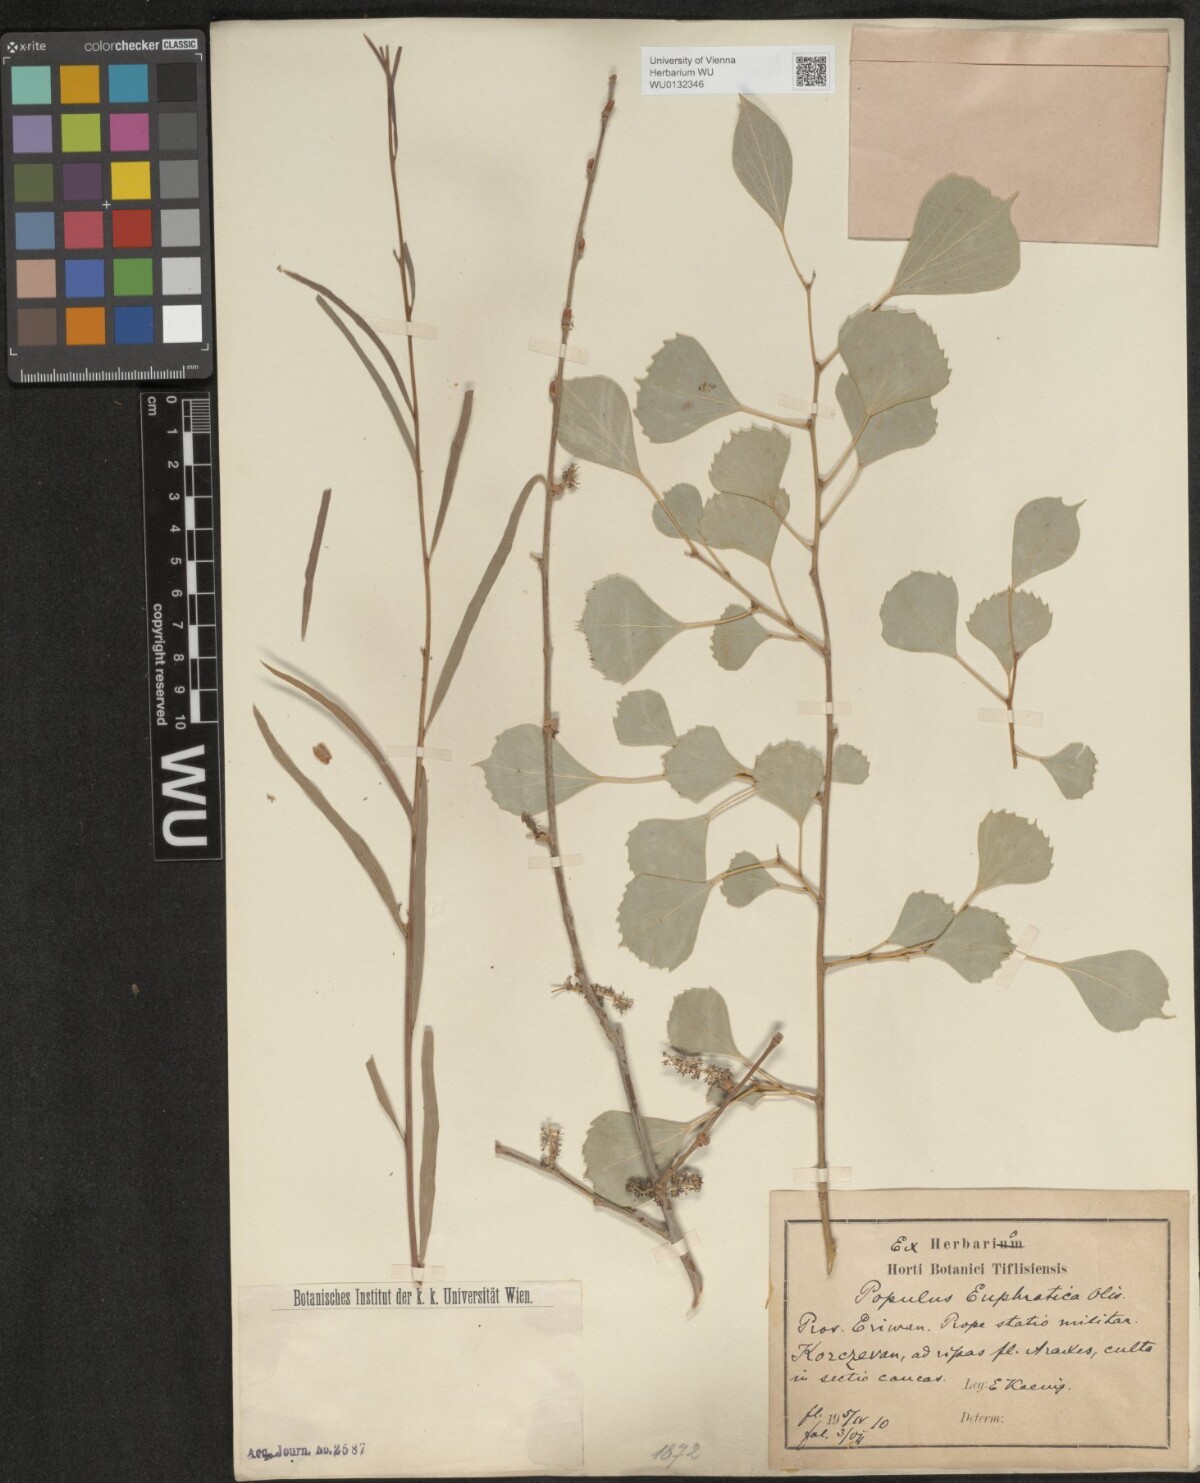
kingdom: Plantae
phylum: Tracheophyta
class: Magnoliopsida
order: Malpighiales
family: Salicaceae
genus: Populus
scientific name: Populus euphratica
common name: Euphrates poplar
